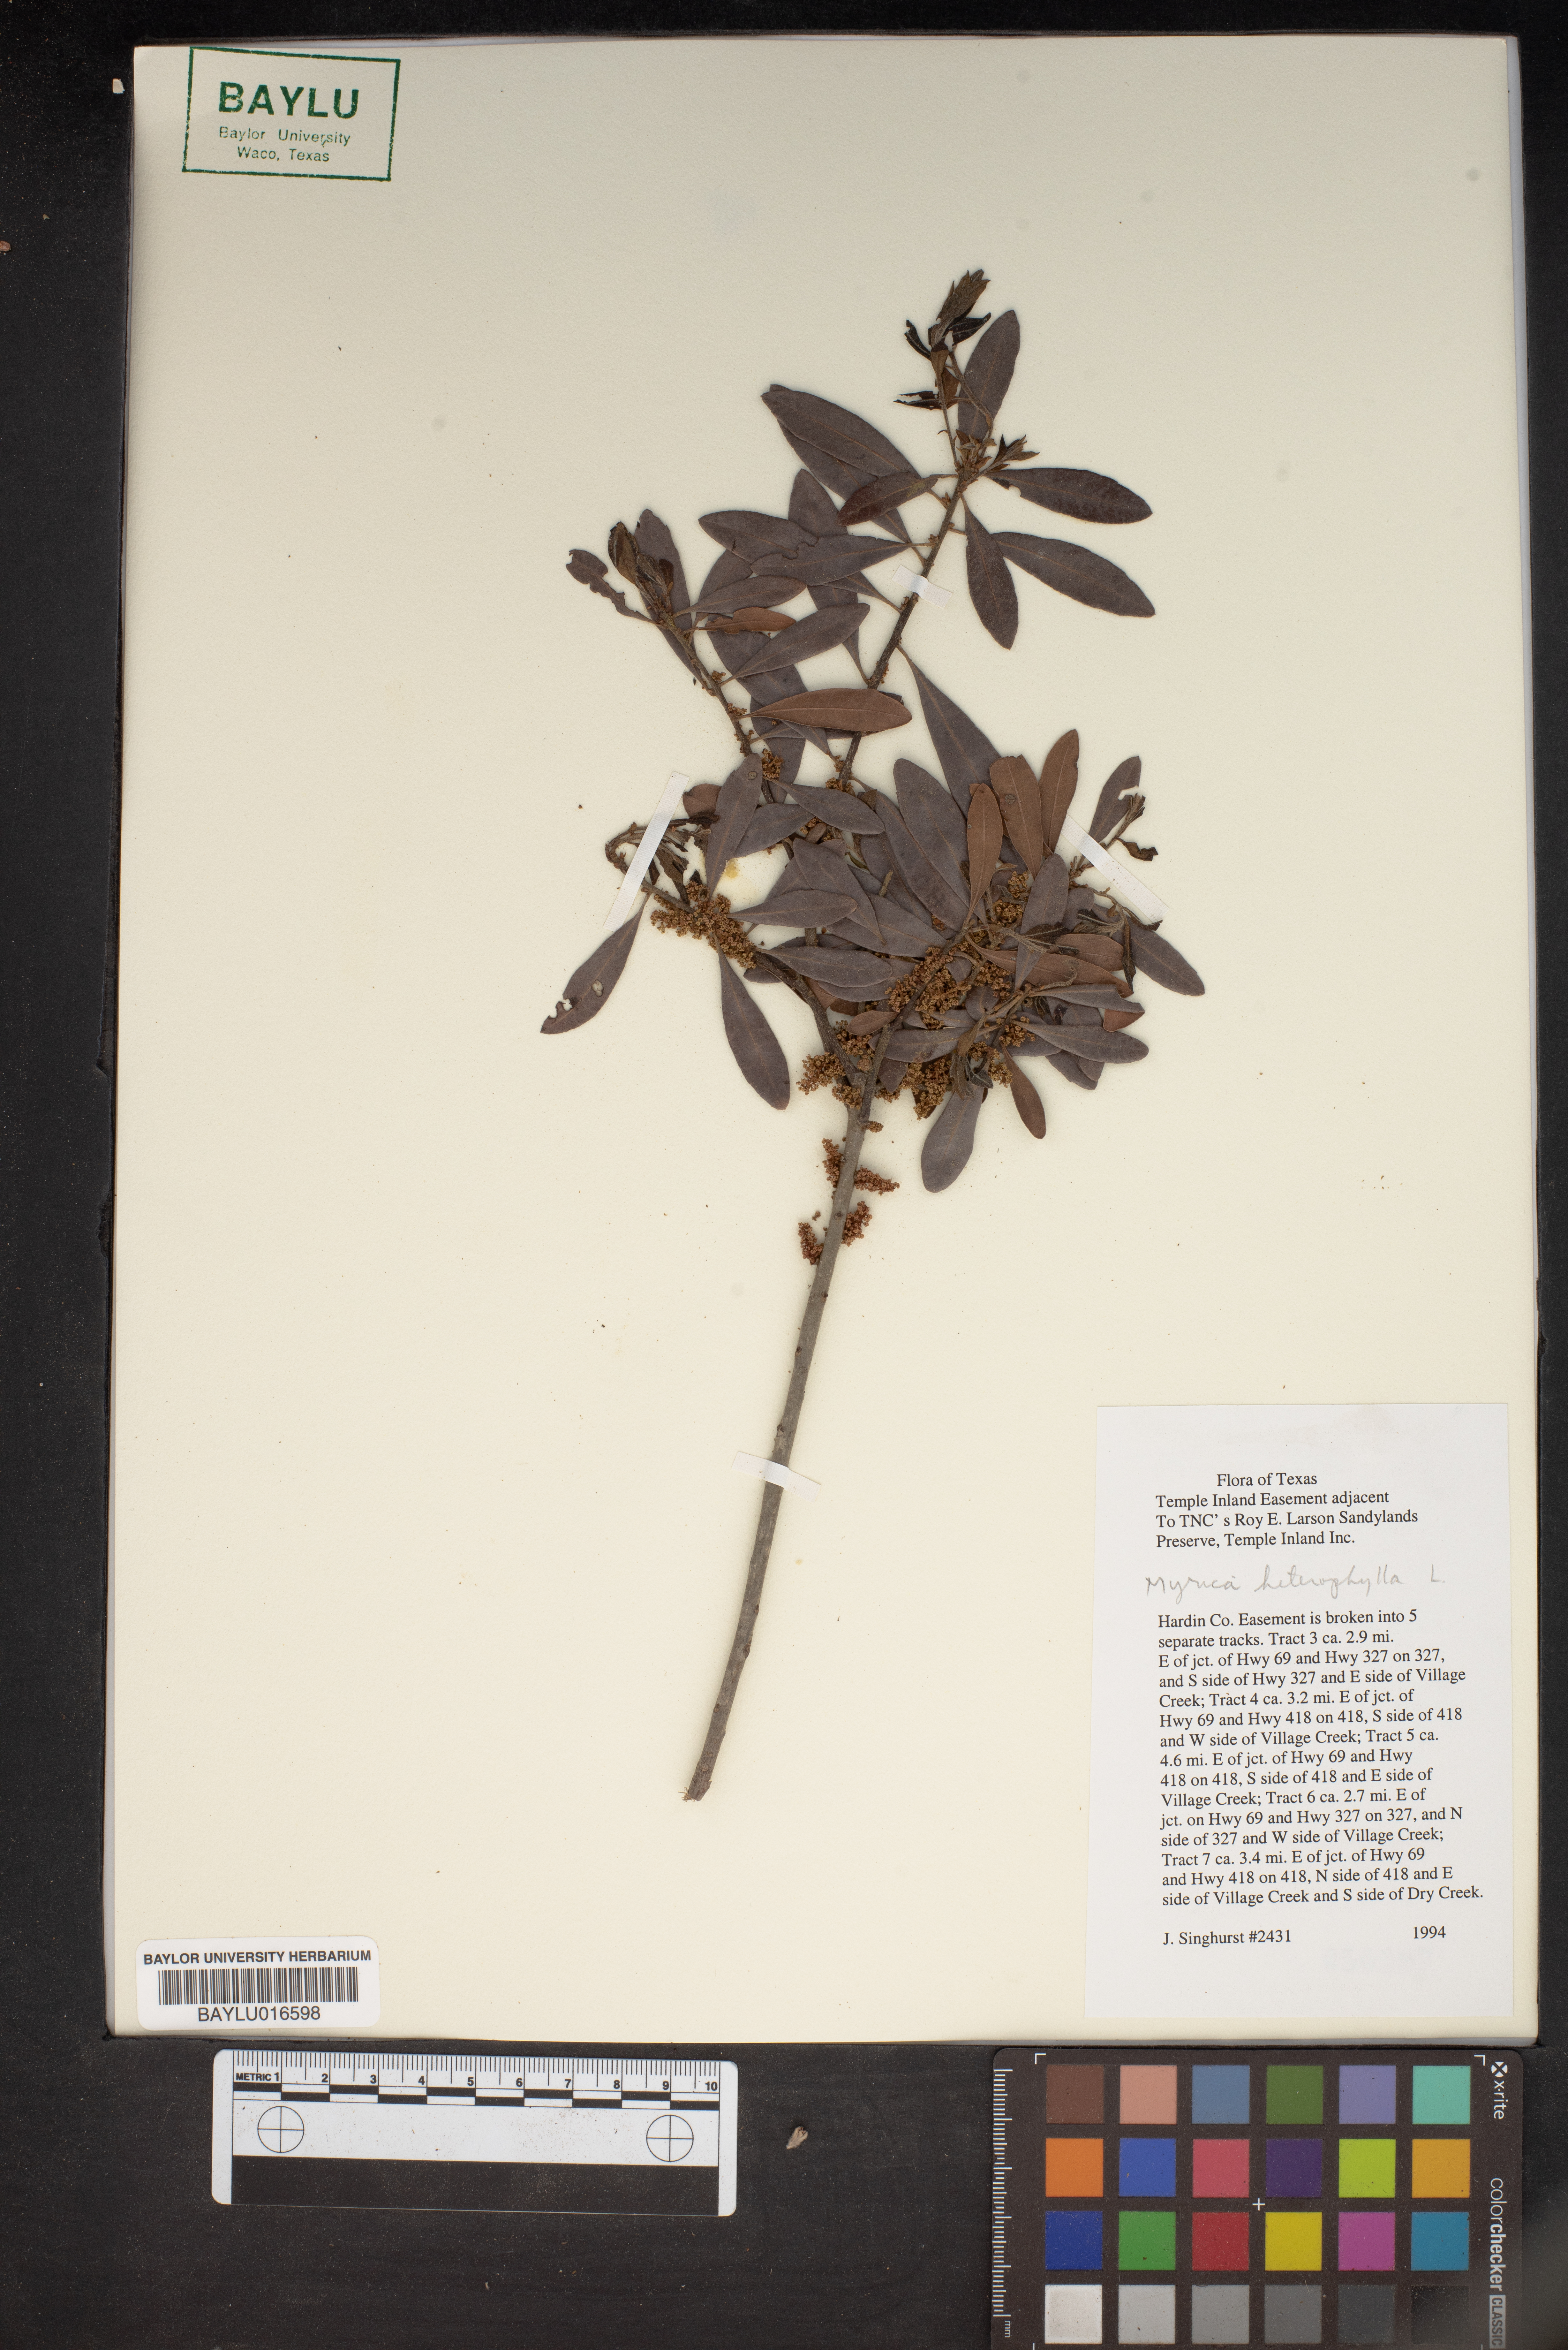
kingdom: Plantae
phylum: Tracheophyta
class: Magnoliopsida
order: Fagales
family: Myricaceae
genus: Morella
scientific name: Morella caroliniensis
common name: Evergreen bayberry
